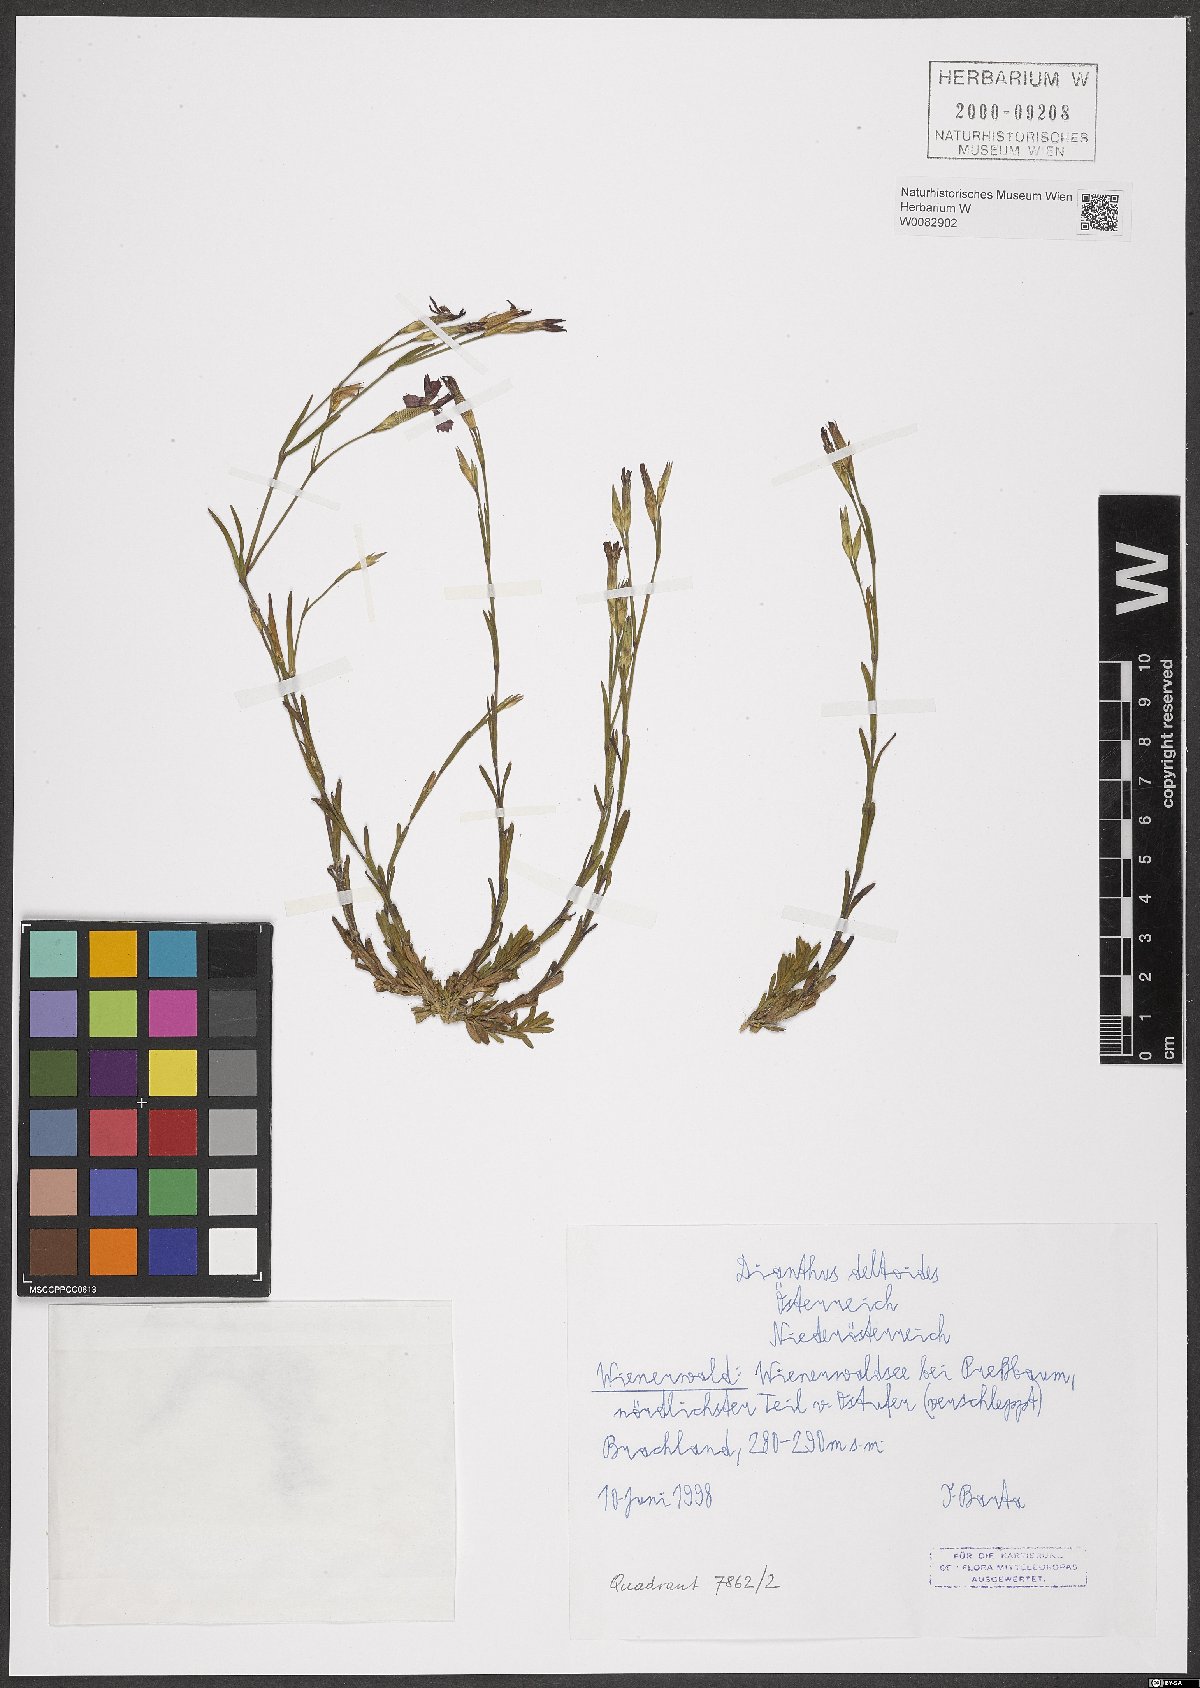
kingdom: Plantae
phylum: Tracheophyta
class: Magnoliopsida
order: Caryophyllales
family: Caryophyllaceae
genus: Dianthus
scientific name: Dianthus deltoides
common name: Maiden pink
